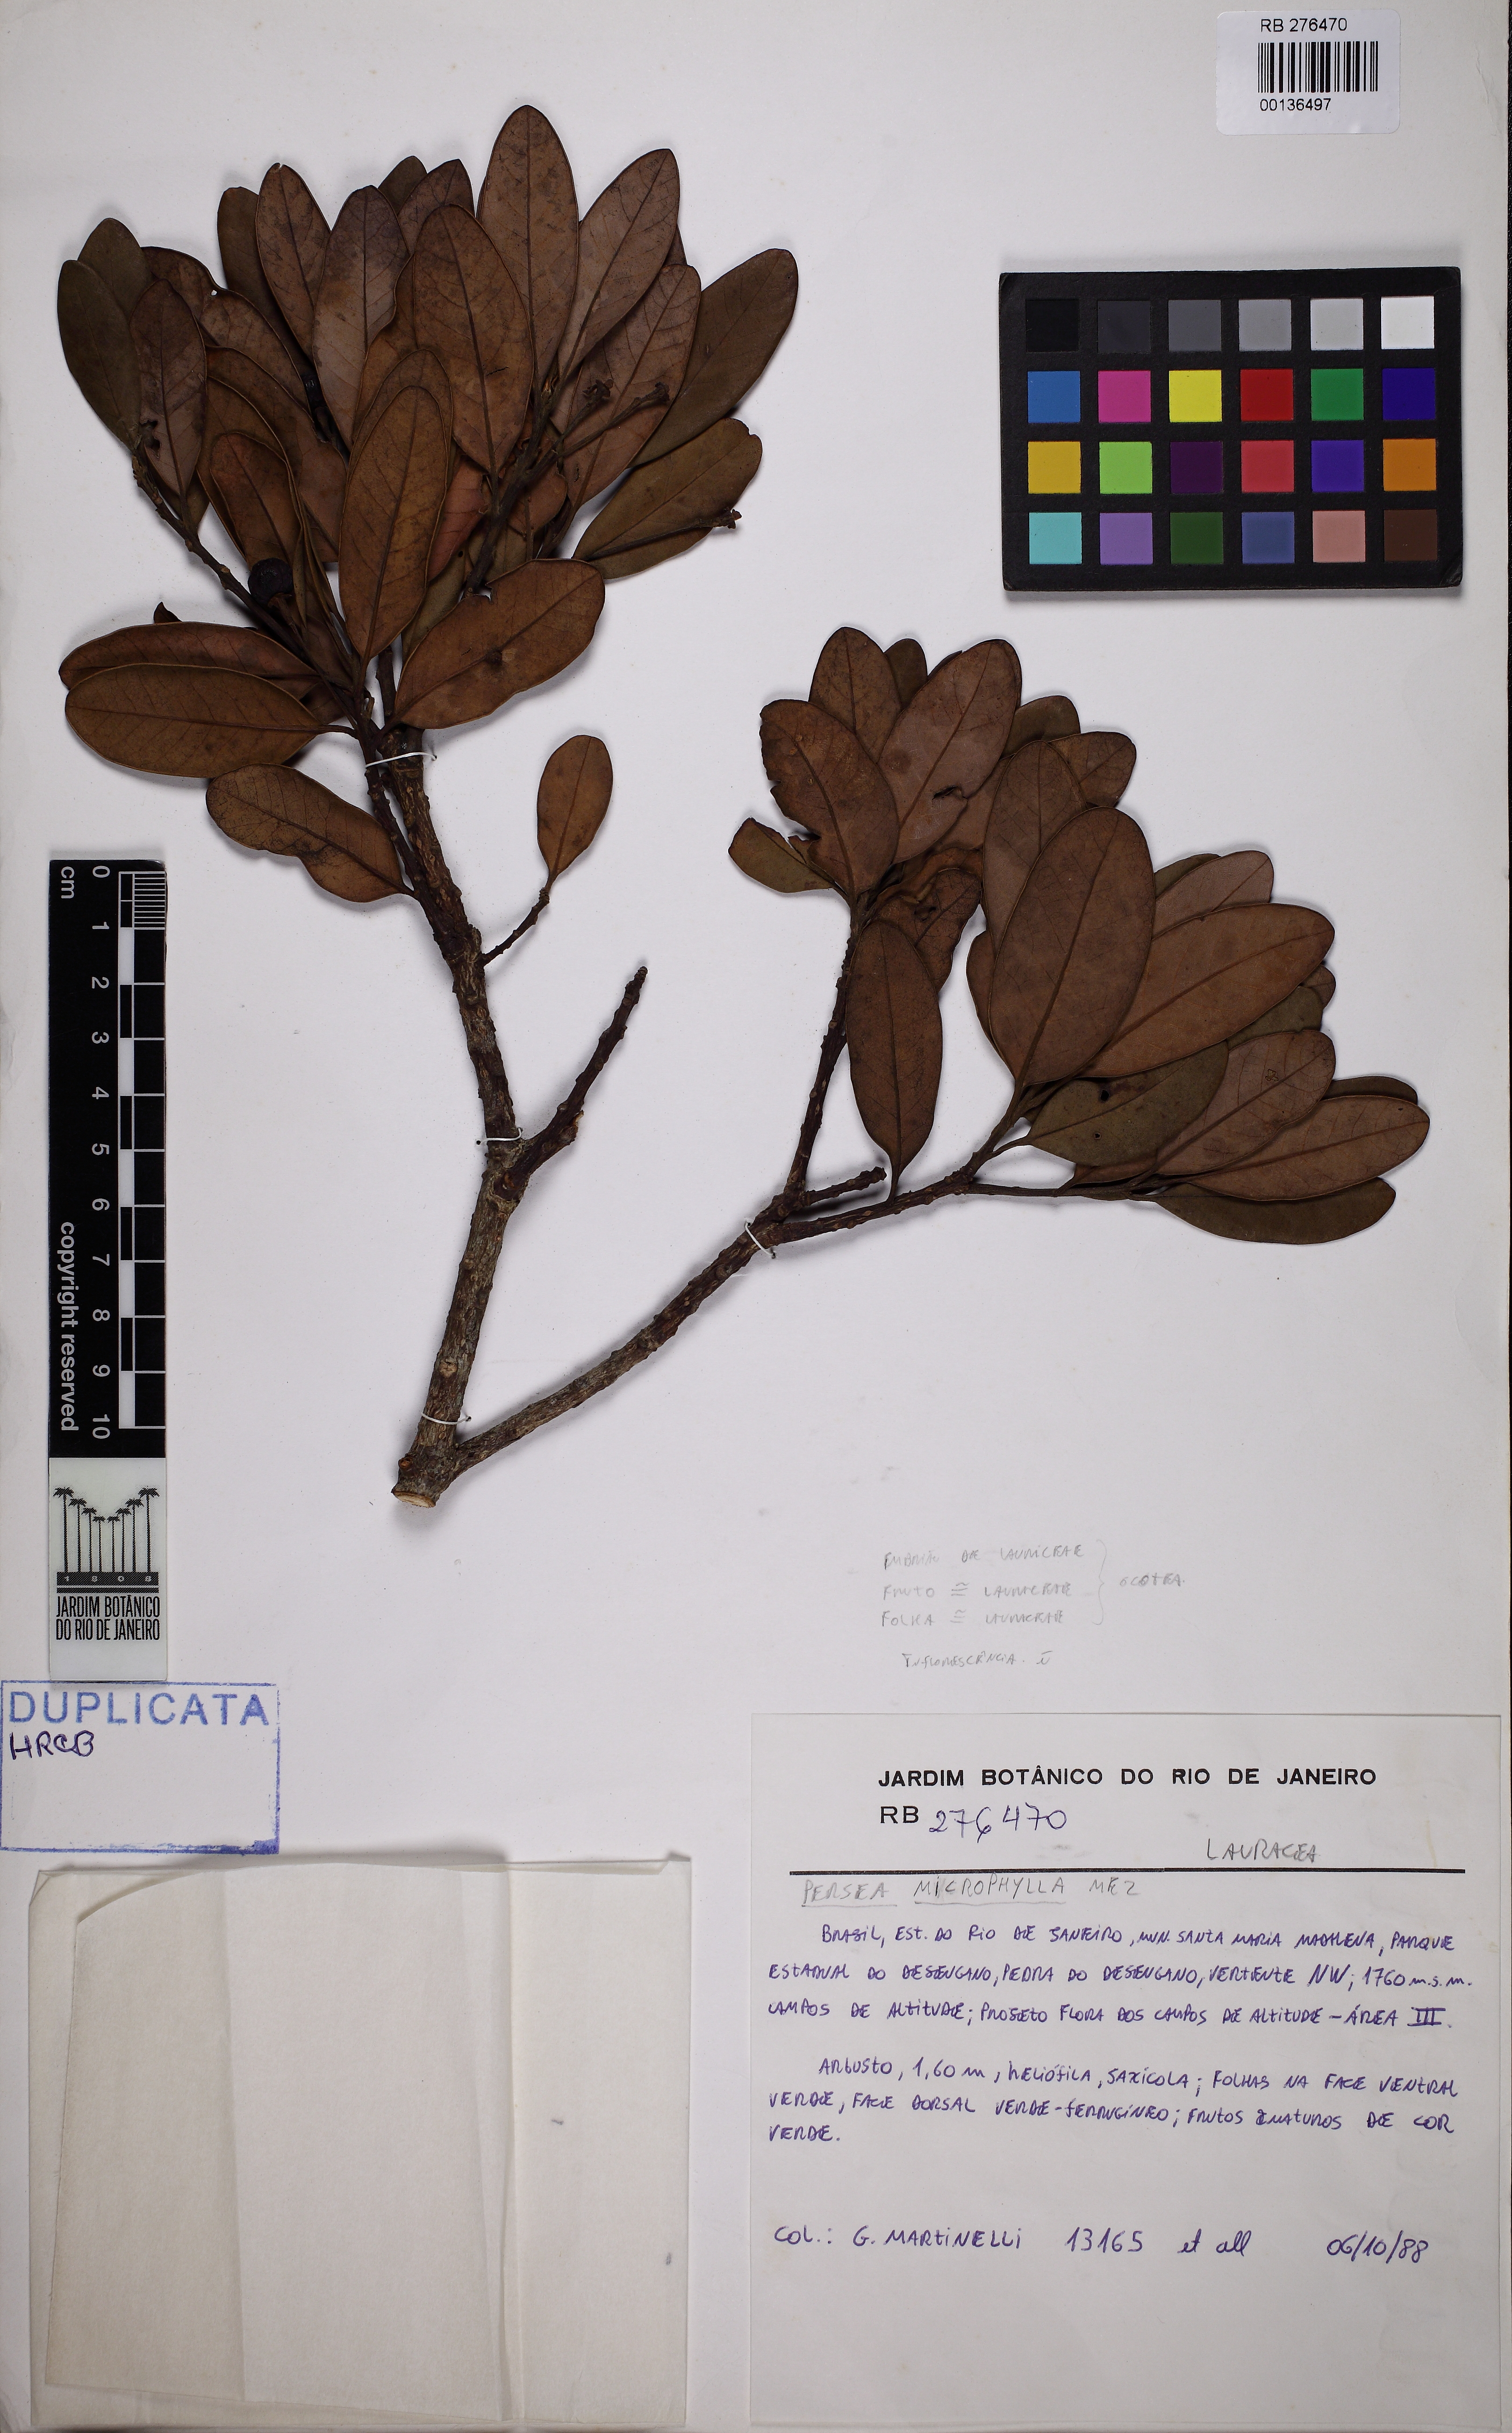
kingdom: Plantae
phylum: Tracheophyta
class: Magnoliopsida
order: Laurales
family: Lauraceae
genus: Persea
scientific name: Persea meziana
